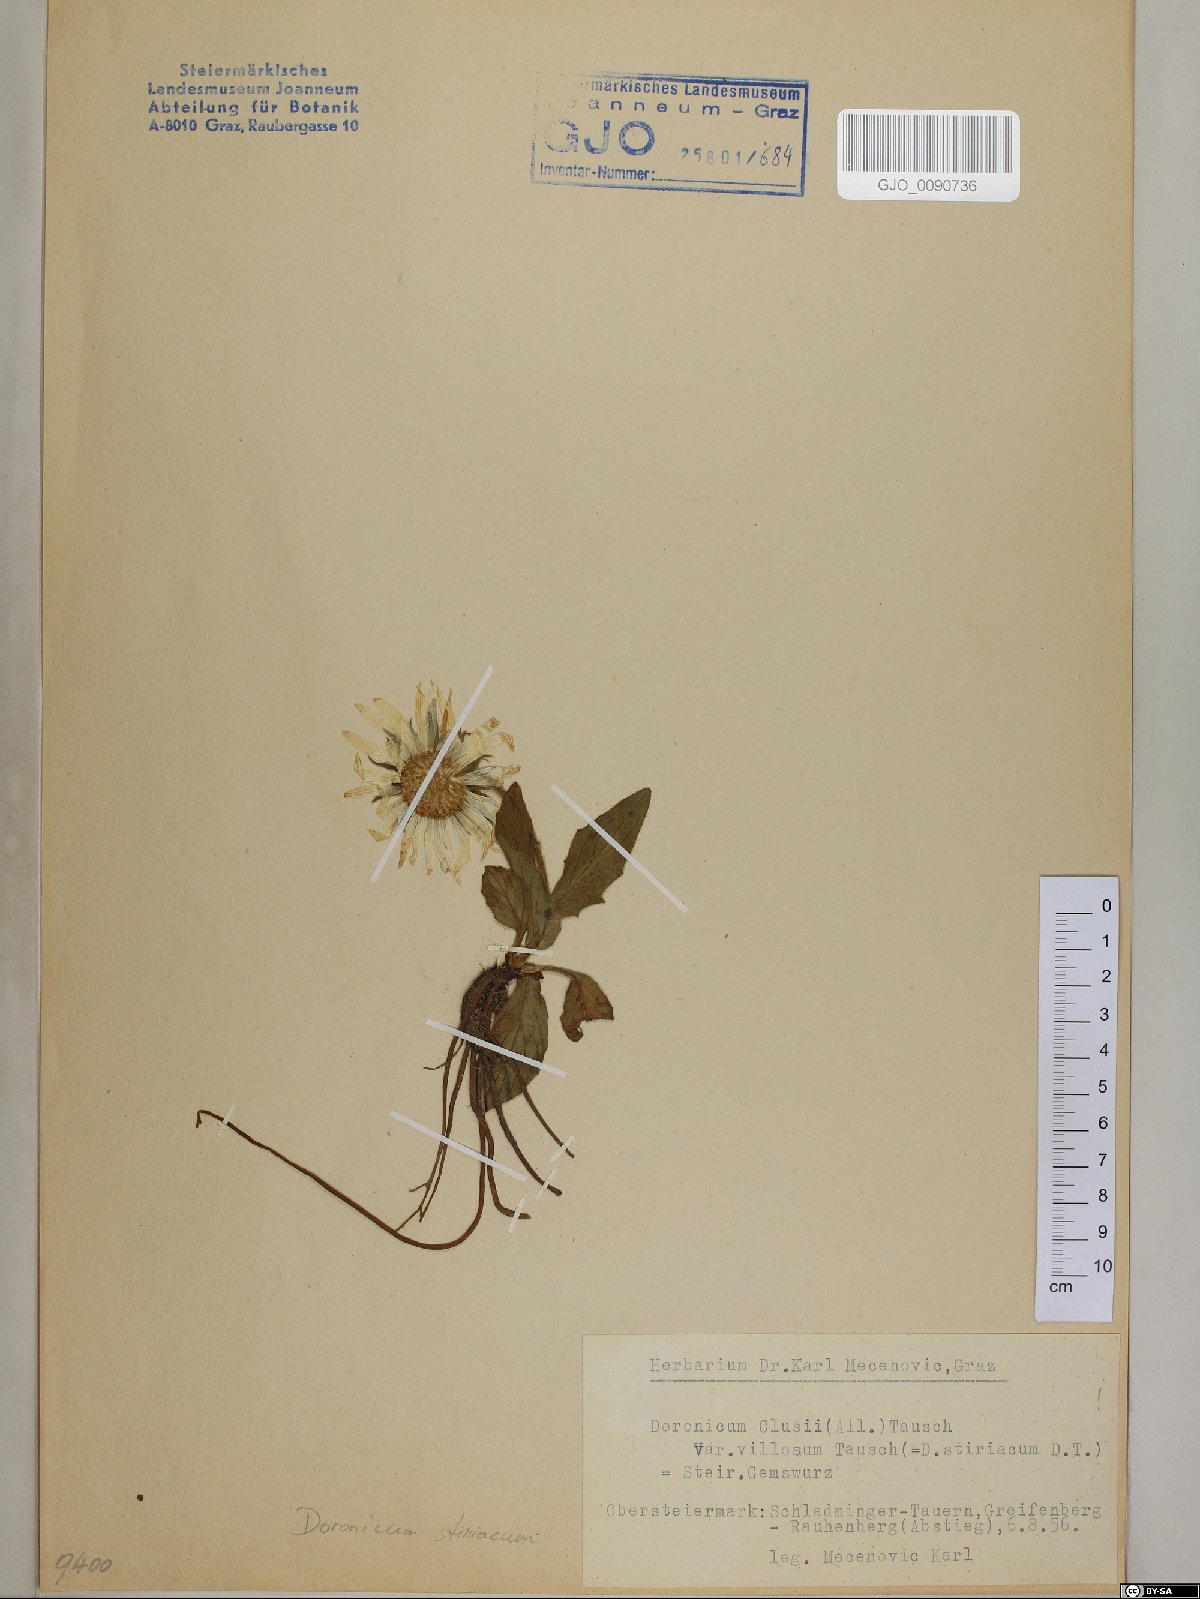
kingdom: Plantae
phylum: Tracheophyta
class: Magnoliopsida
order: Asterales
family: Asteraceae
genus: Doronicum
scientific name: Doronicum clusii
